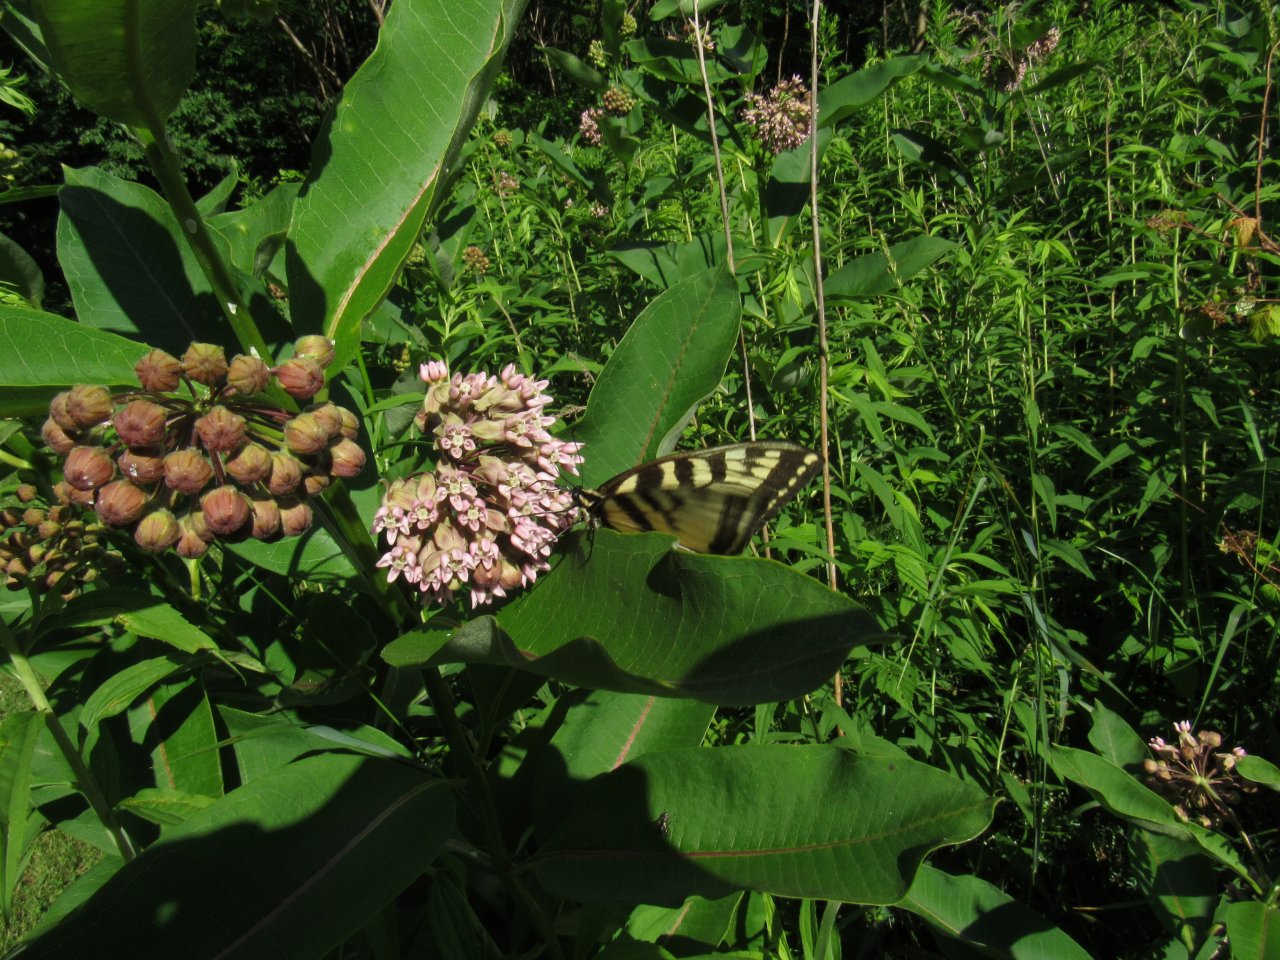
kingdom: Animalia
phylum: Arthropoda
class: Insecta
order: Lepidoptera
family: Papilionidae
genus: Pterourus
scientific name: Pterourus
